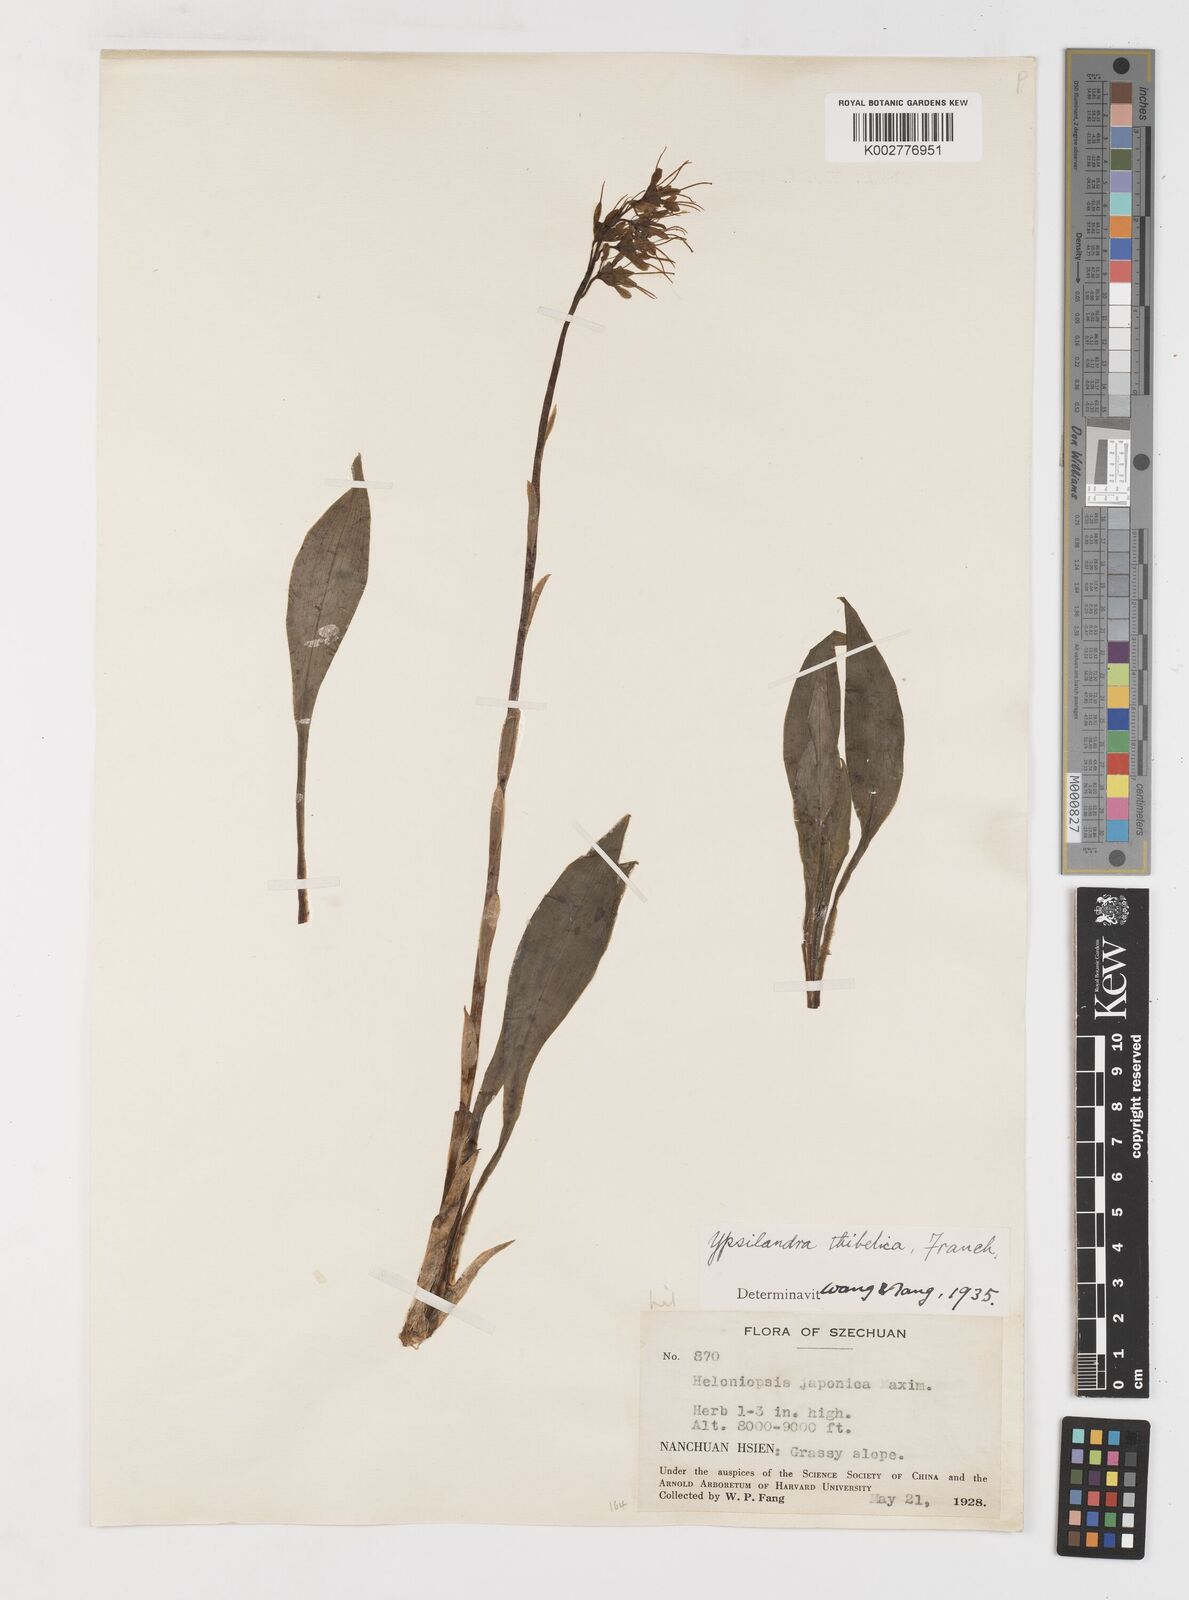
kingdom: Plantae
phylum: Tracheophyta
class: Liliopsida
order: Liliales
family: Melanthiaceae
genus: Helonias
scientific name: Helonias thibetica
